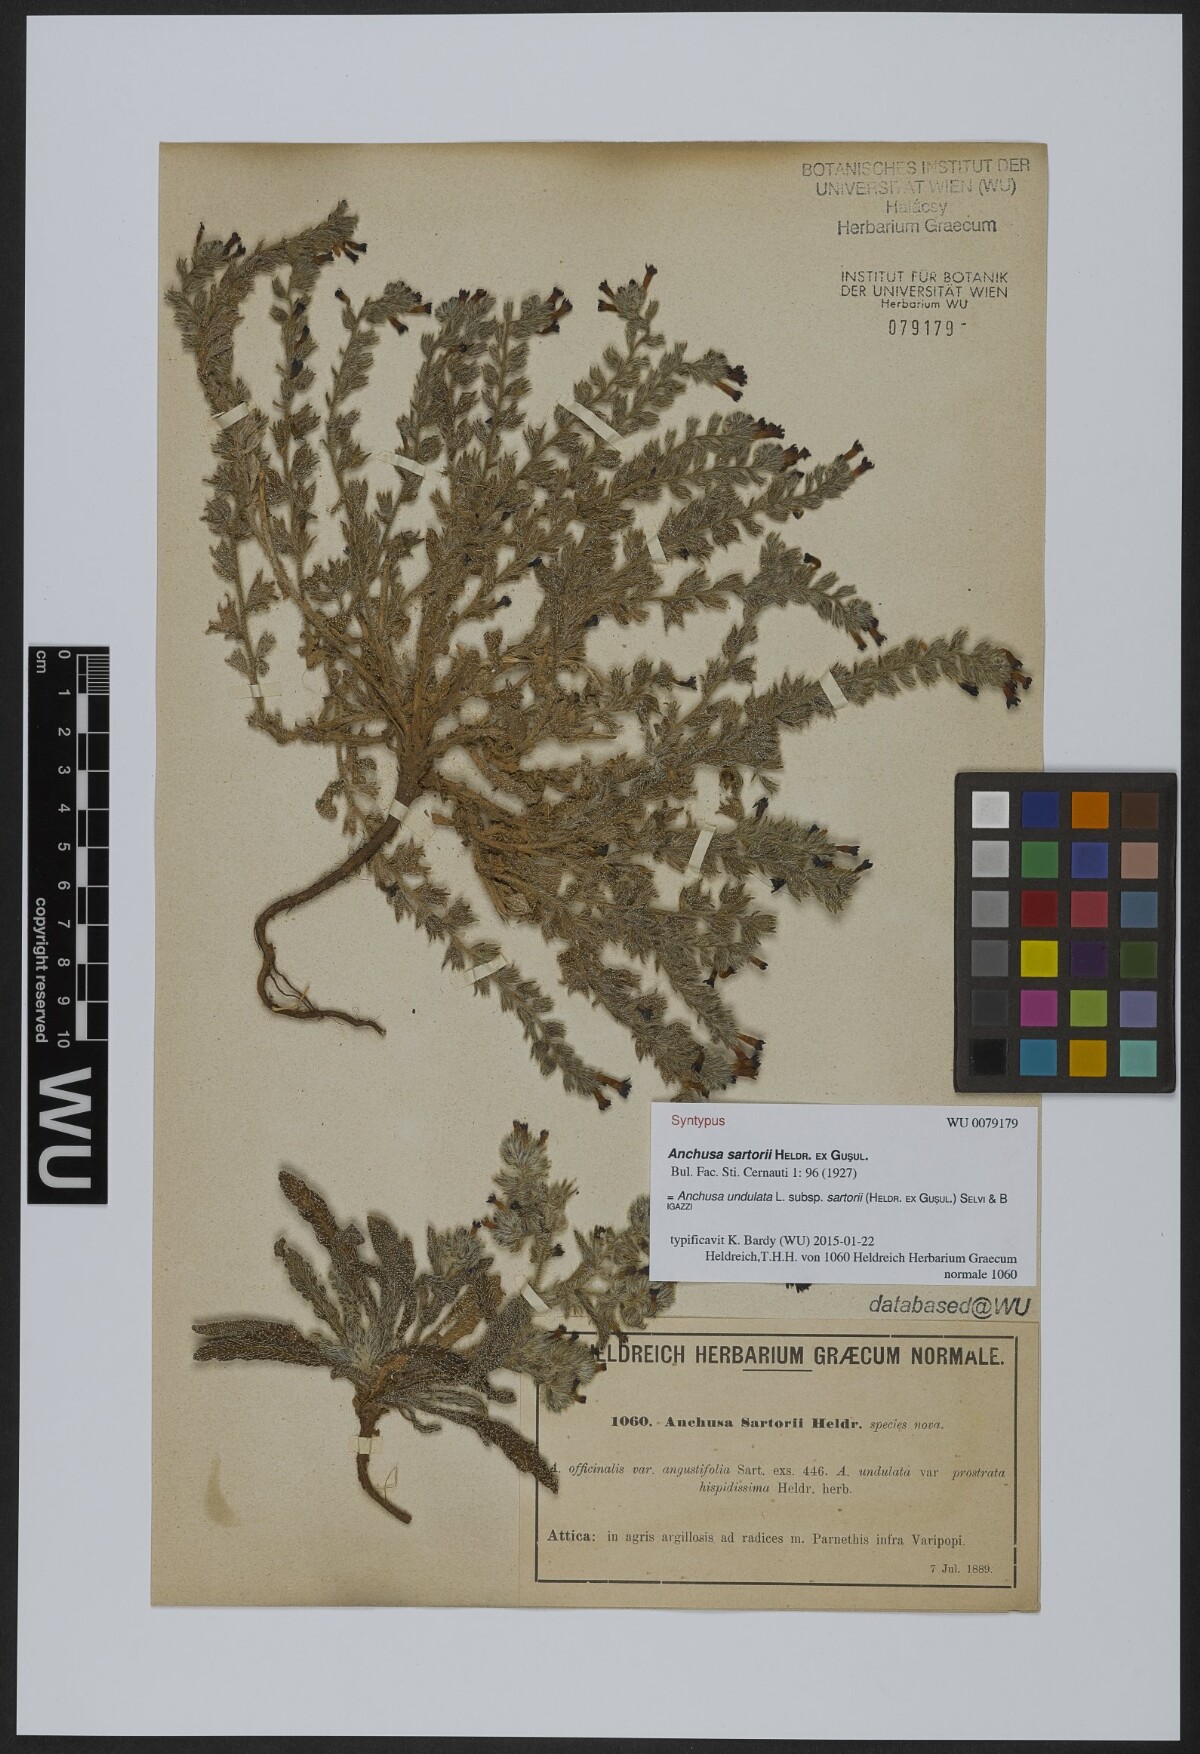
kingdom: Plantae
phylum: Tracheophyta
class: Magnoliopsida
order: Boraginales
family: Boraginaceae
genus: Anchusa
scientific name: Anchusa undulata
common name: Undulate alkanet
